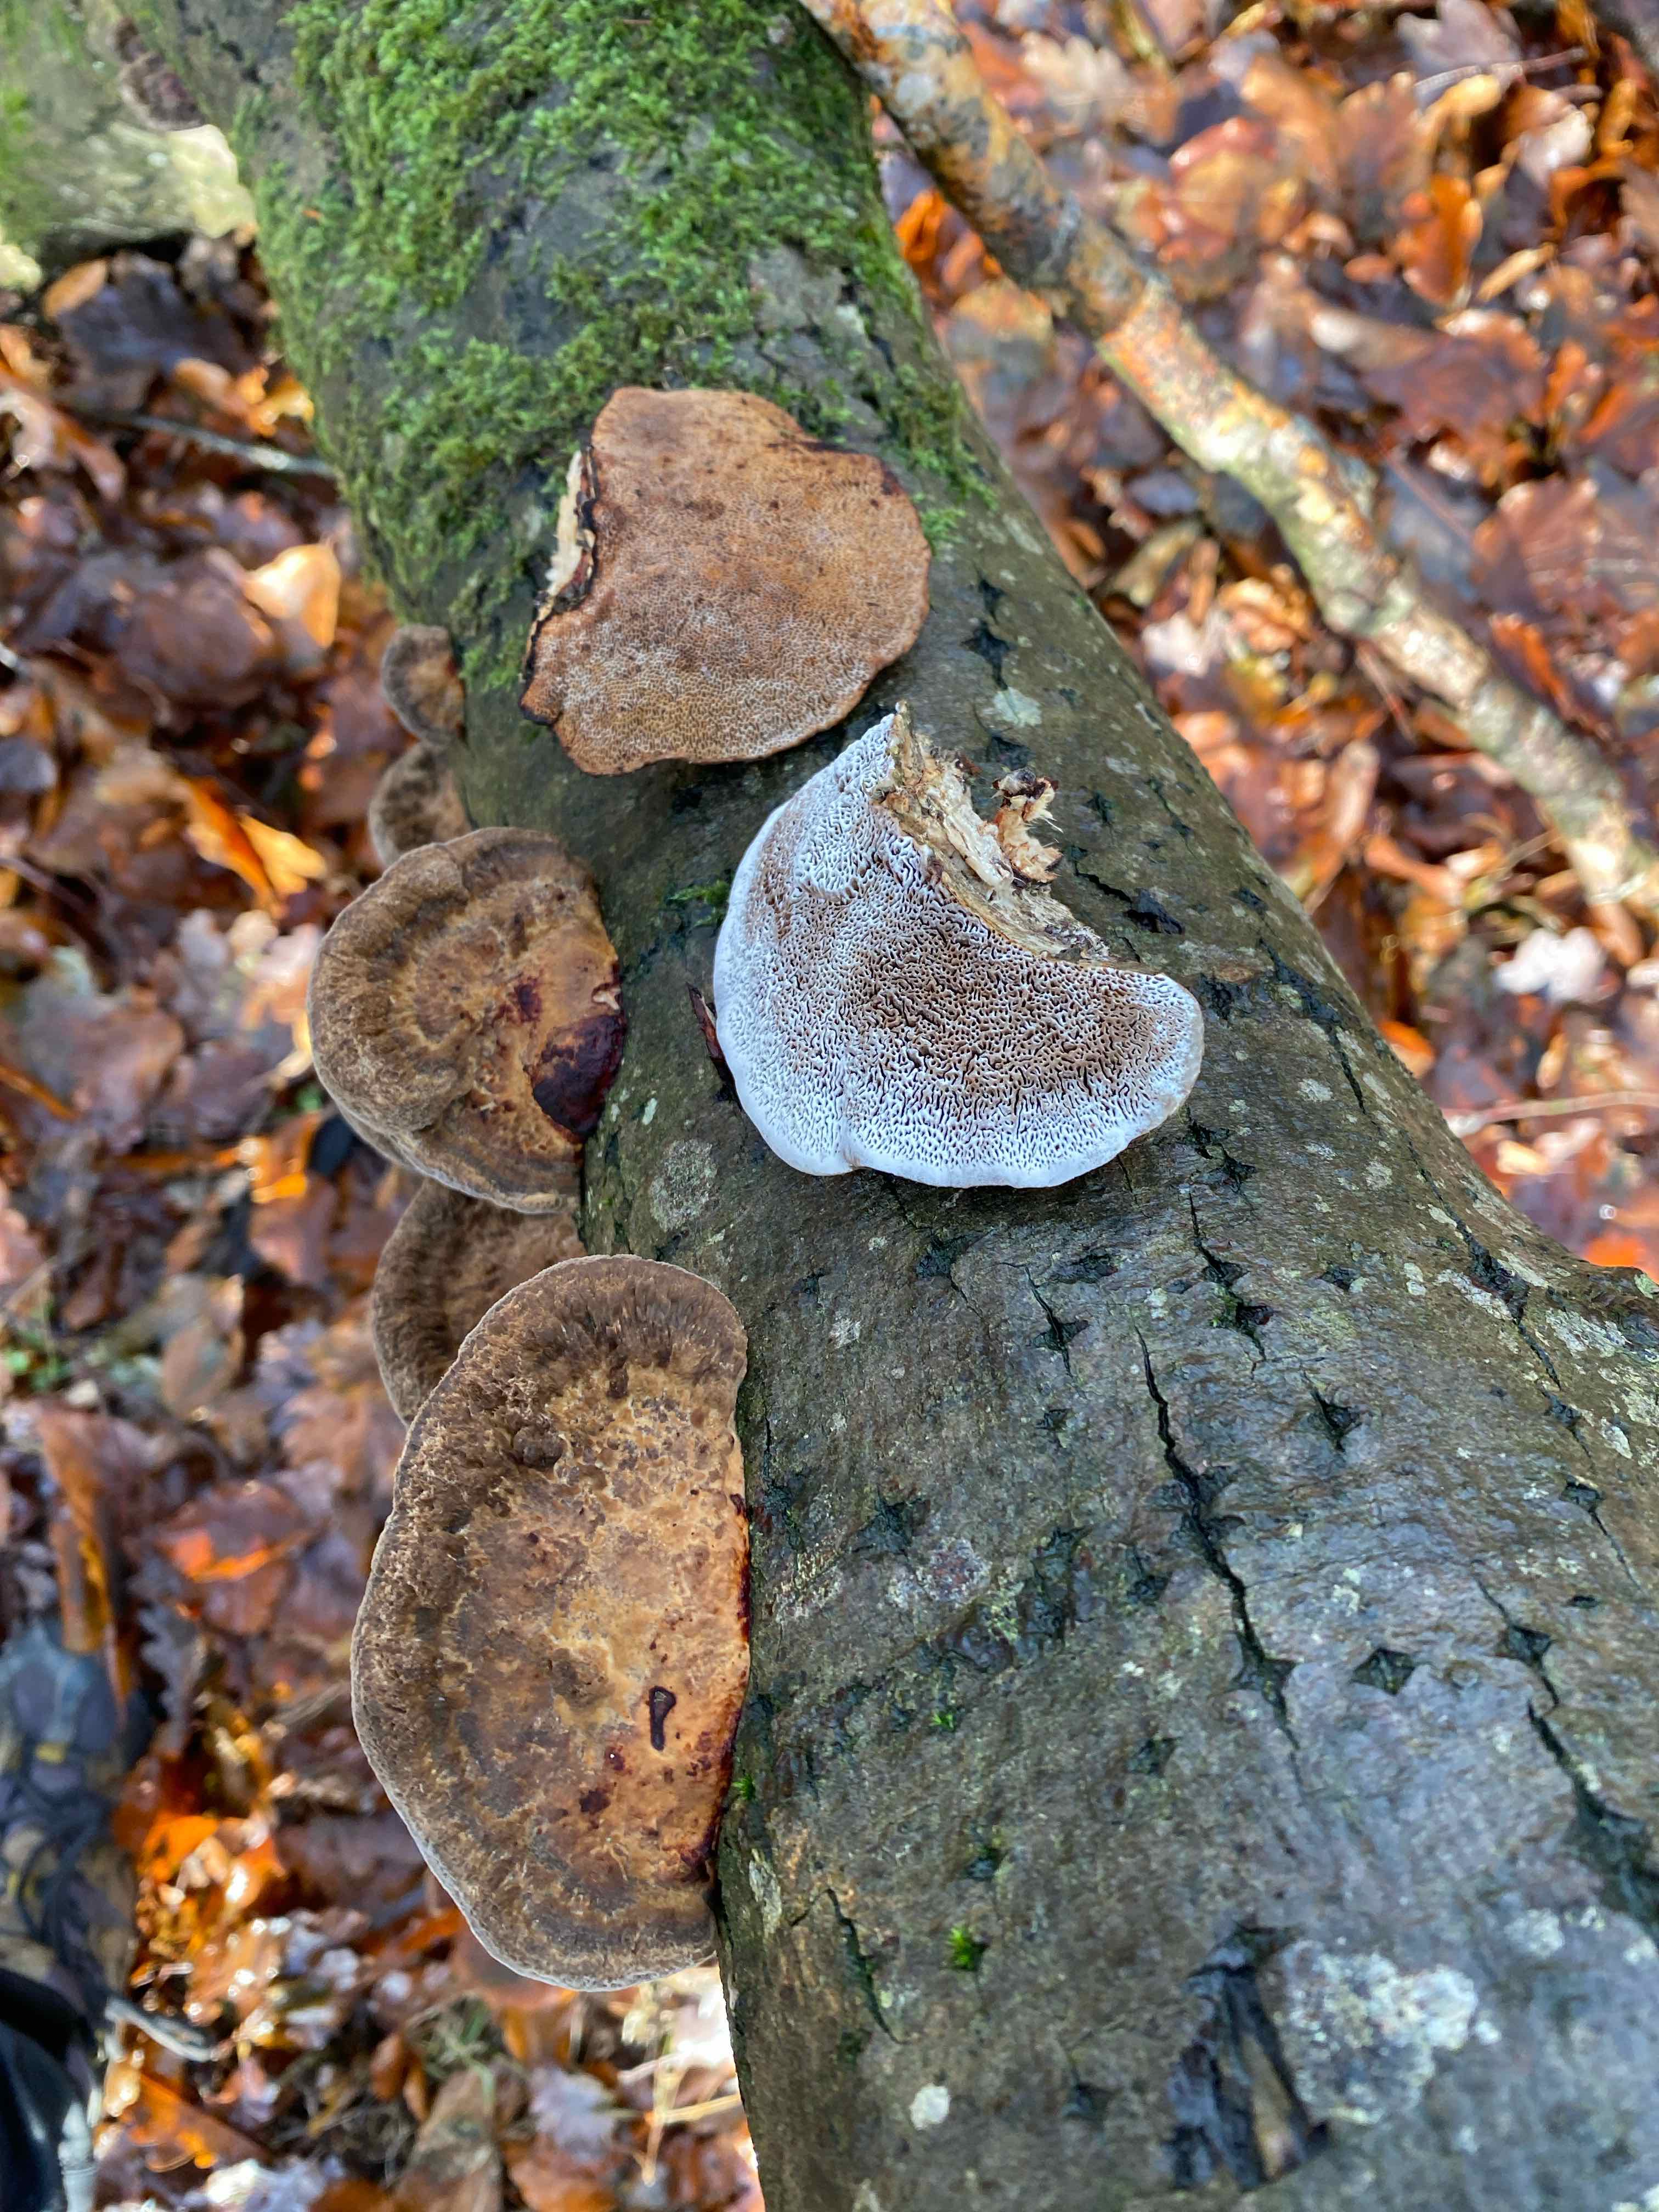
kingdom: Fungi
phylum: Basidiomycota
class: Agaricomycetes
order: Polyporales
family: Polyporaceae
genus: Daedaleopsis
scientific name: Daedaleopsis confragosa
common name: rødmende læderporesvamp
